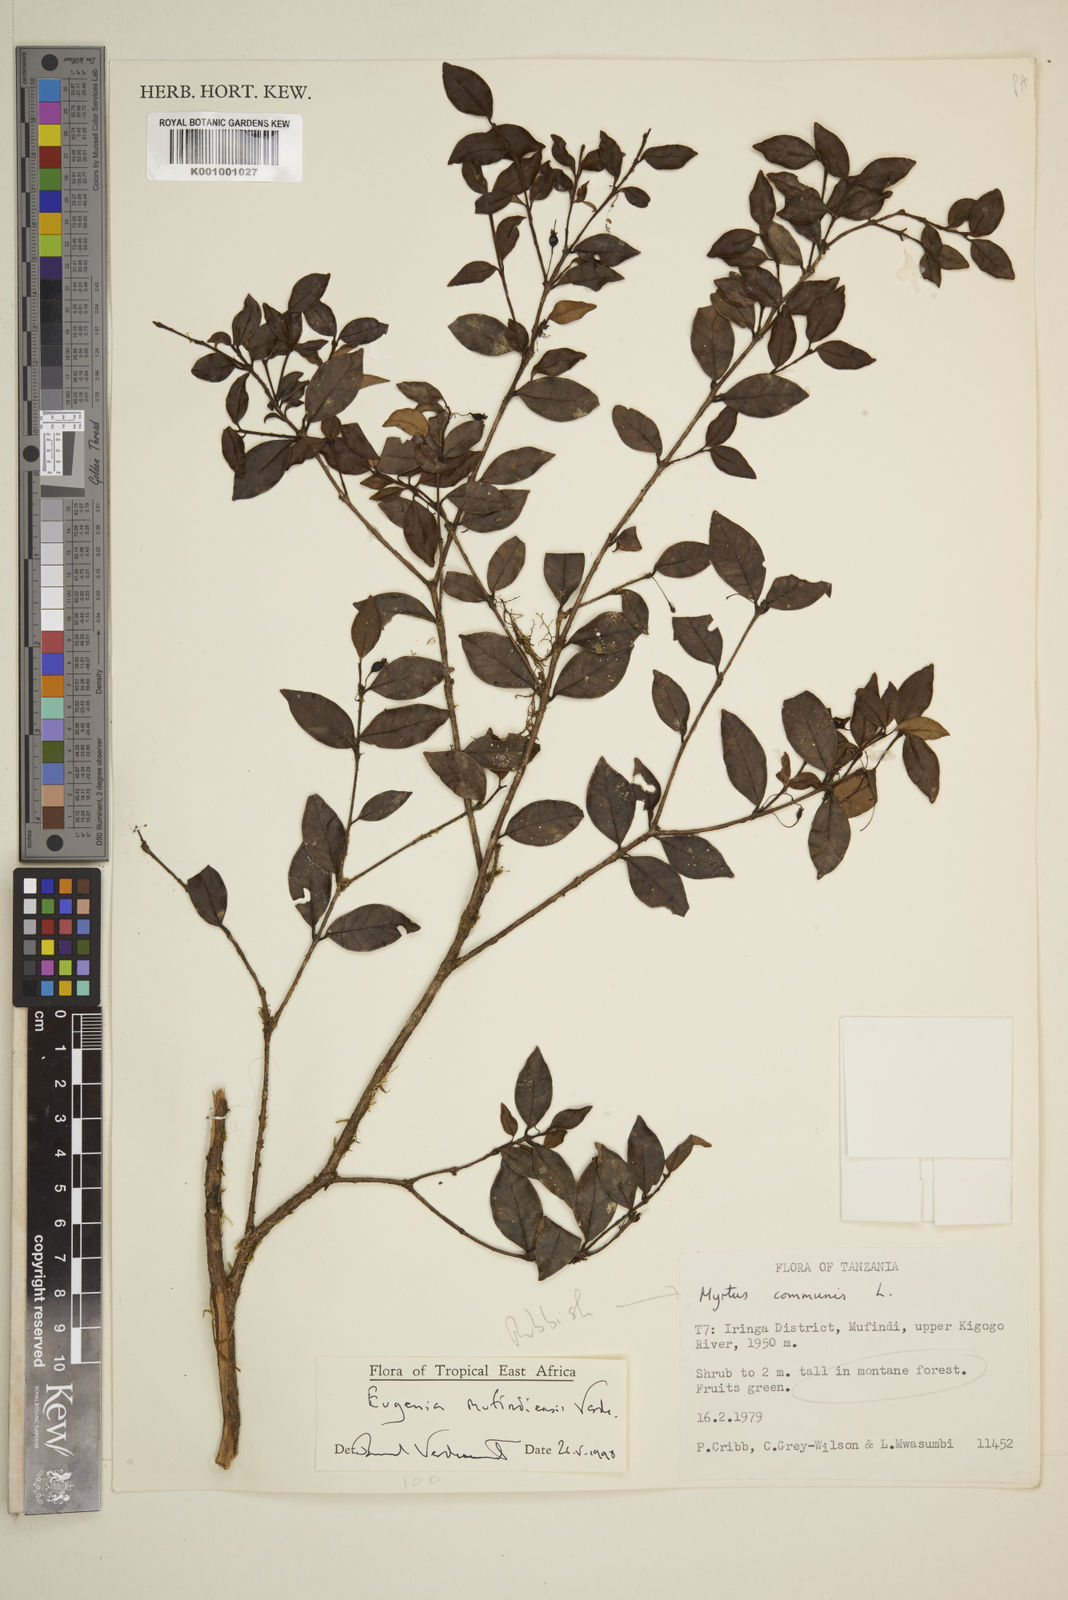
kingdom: Plantae
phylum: Tracheophyta
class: Magnoliopsida
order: Myrtales
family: Myrtaceae
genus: Eugenia
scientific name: Eugenia mufindiensis
